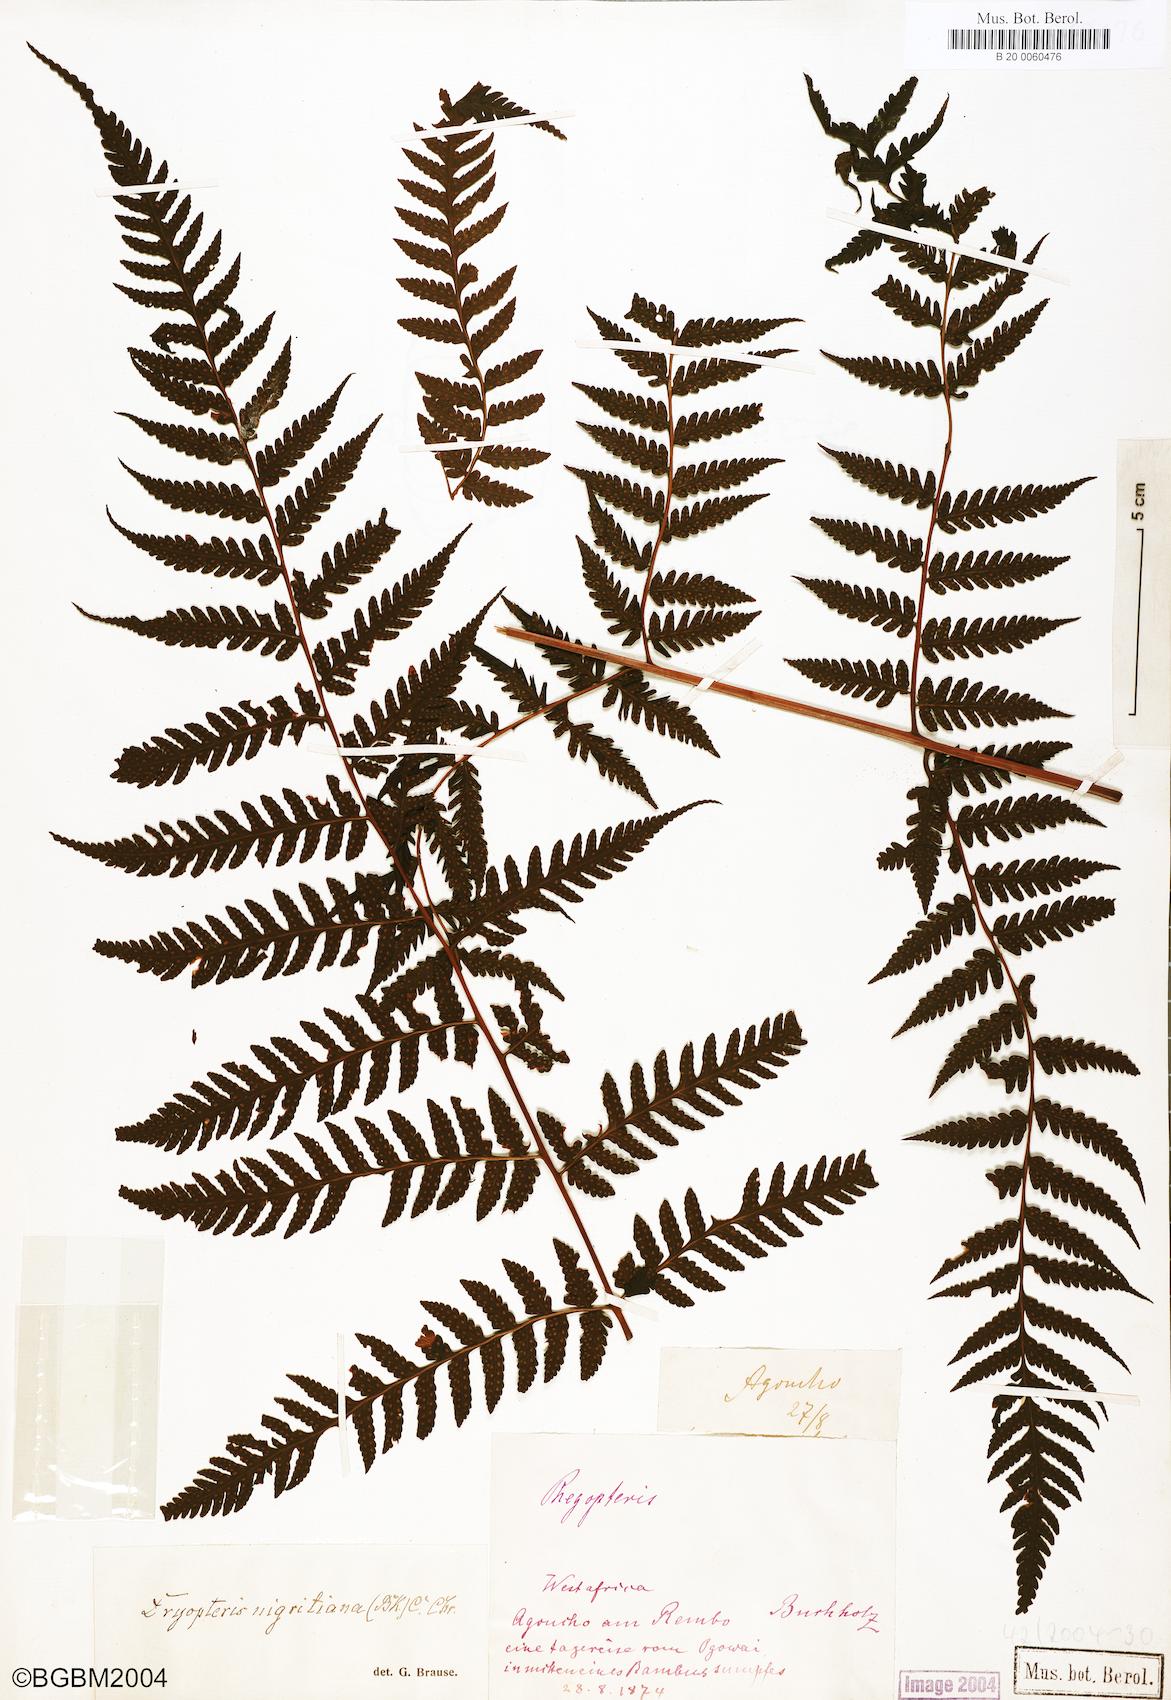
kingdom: Plantae
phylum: Tracheophyta
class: Polypodiopsida
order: Polypodiales
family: Dryopteridaceae
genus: Parapolystichum
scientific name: Parapolystichum nigritianum
